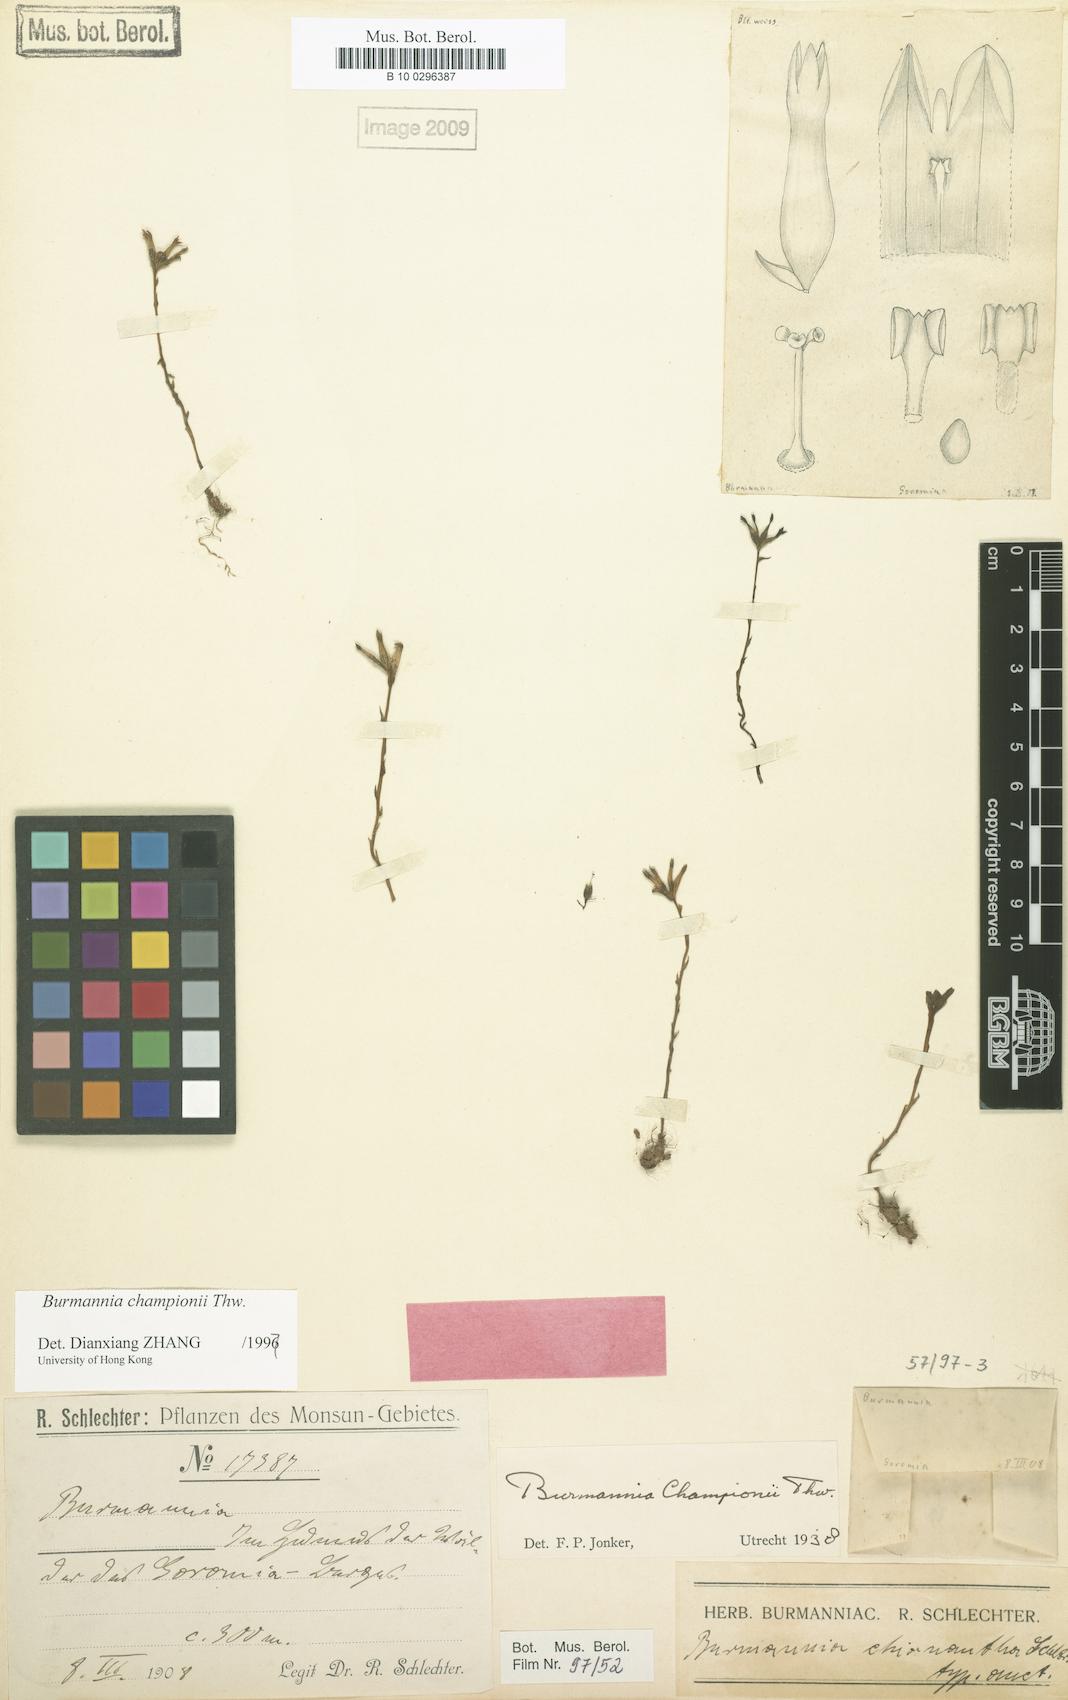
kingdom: Plantae
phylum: Tracheophyta
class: Liliopsida
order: Dioscoreales
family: Burmanniaceae
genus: Burmannia
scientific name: Burmannia championii
